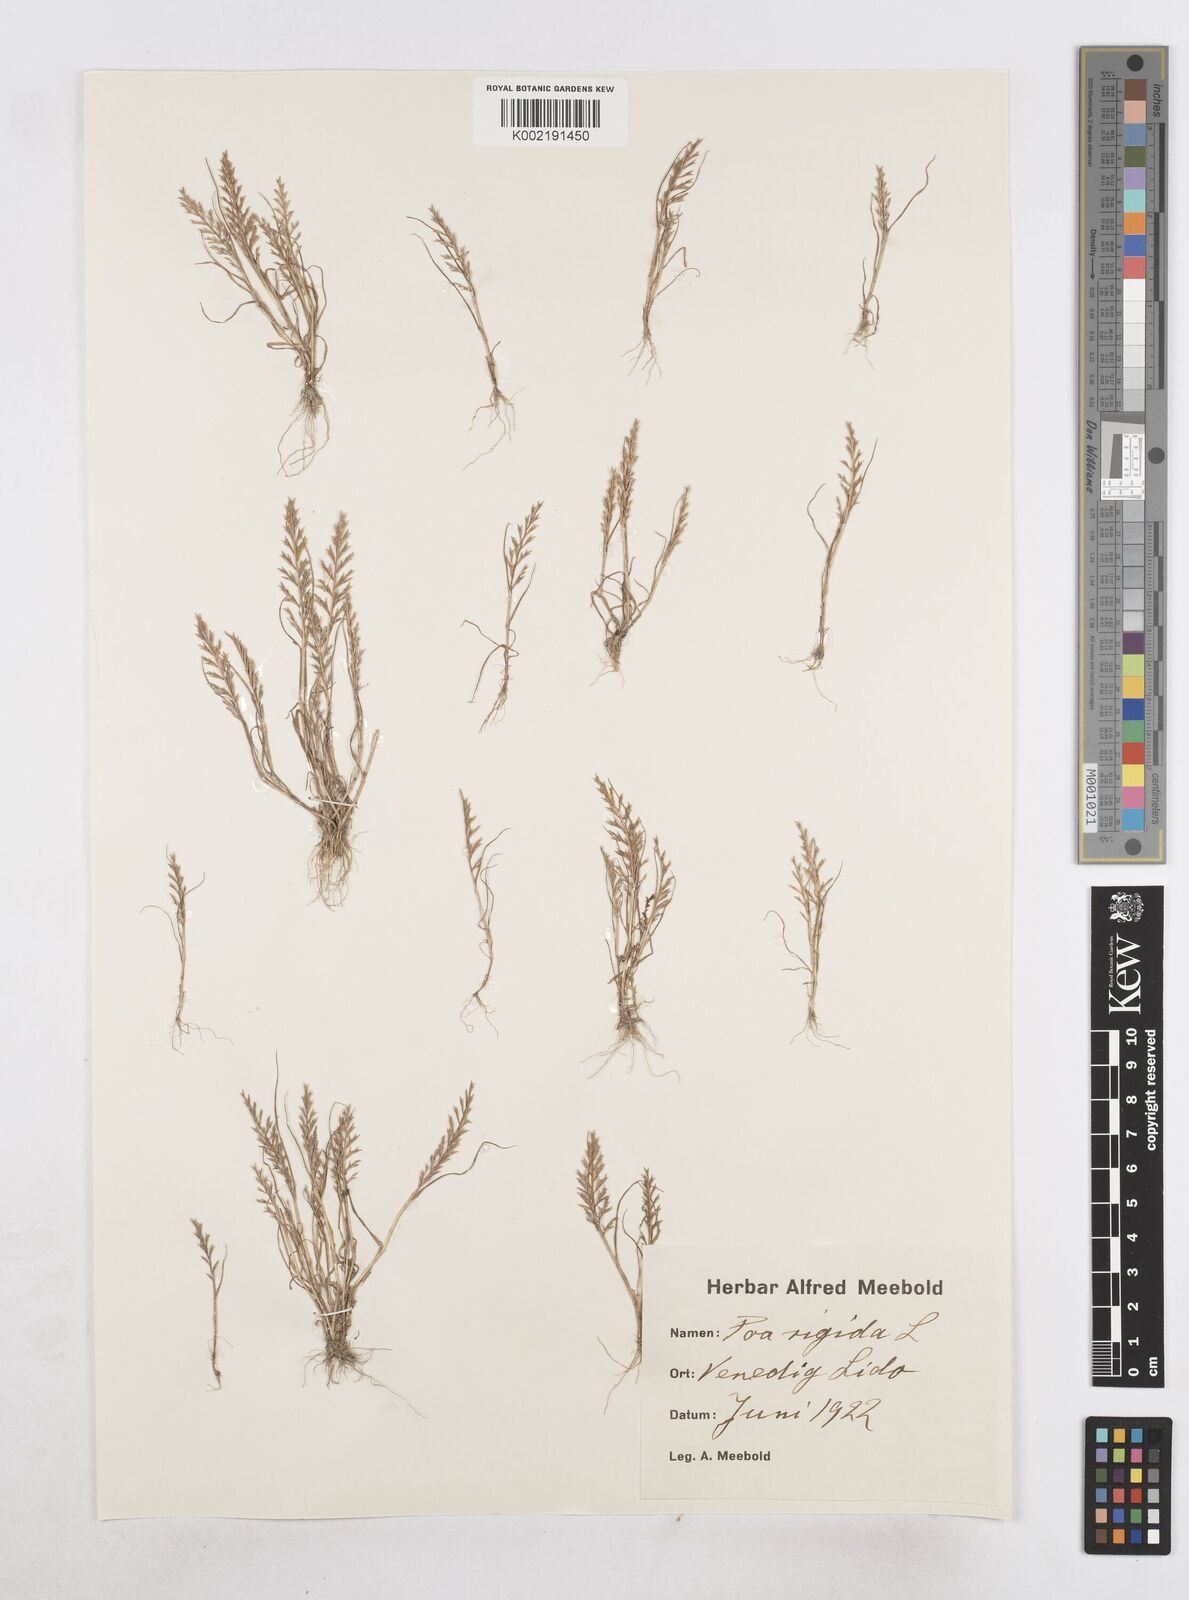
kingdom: Plantae
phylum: Tracheophyta
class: Liliopsida
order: Poales
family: Poaceae
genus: Catapodium
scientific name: Catapodium rigidum
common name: Fern-grass
